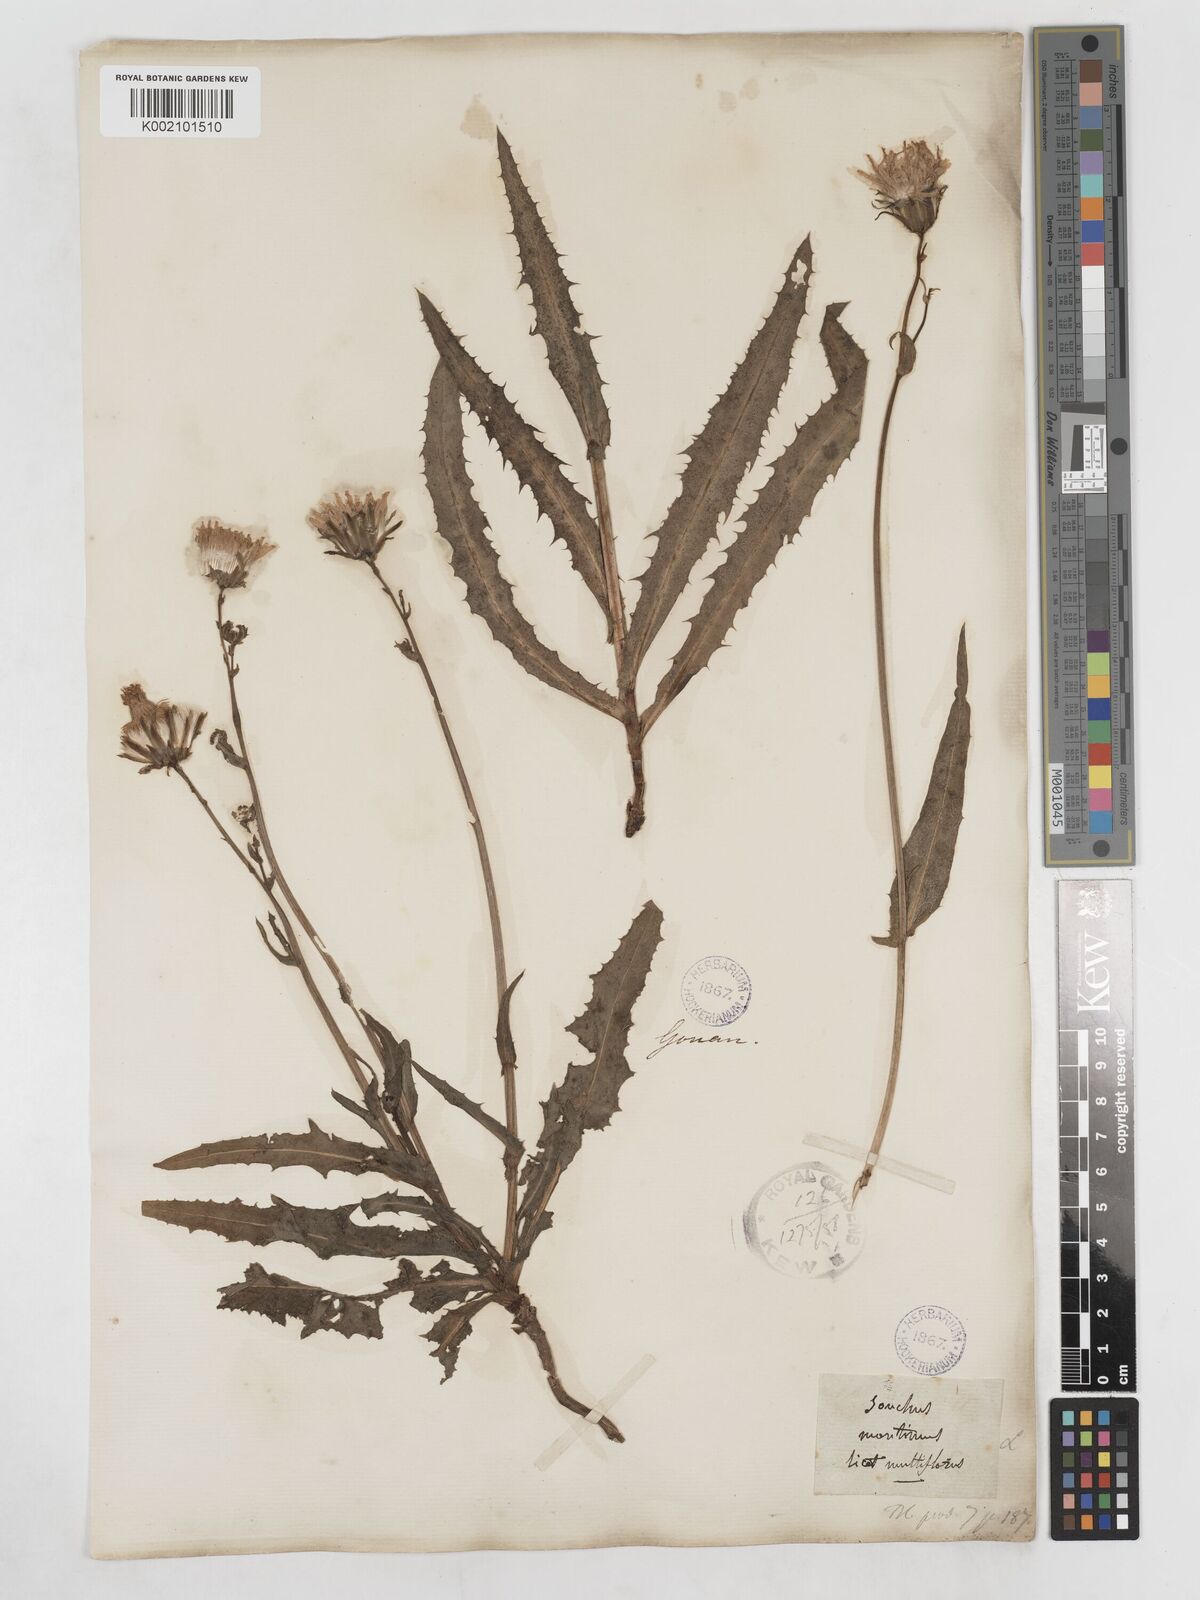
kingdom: Plantae
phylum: Tracheophyta
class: Magnoliopsida
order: Asterales
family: Asteraceae
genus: Sonchus
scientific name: Sonchus maritimus
